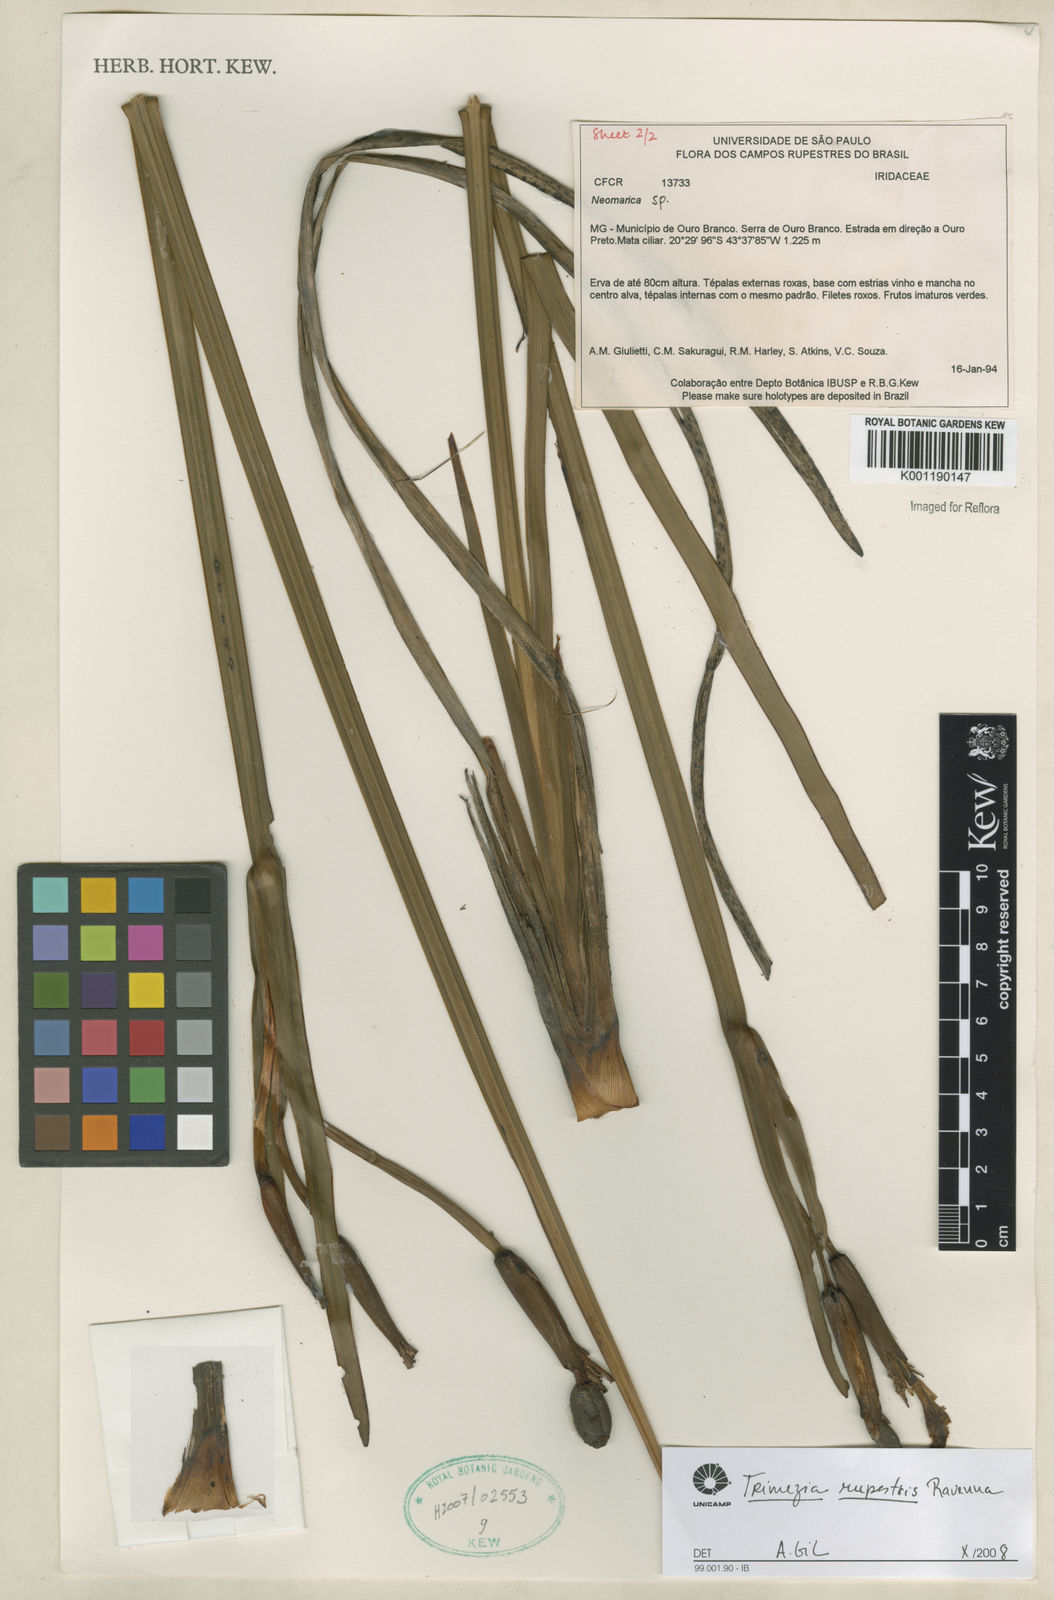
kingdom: Plantae
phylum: Tracheophyta
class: Liliopsida
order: Asparagales
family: Iridaceae
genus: Trimezia
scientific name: Trimezia
